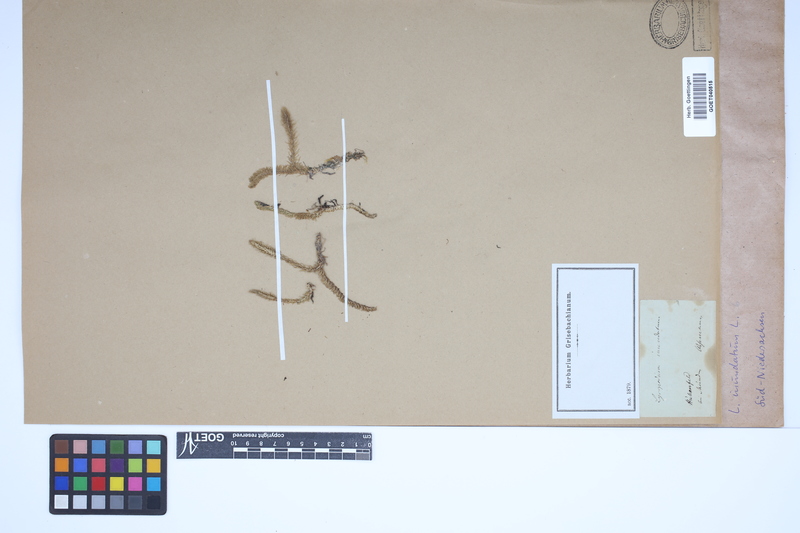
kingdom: Plantae
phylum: Tracheophyta
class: Lycopodiopsida
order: Lycopodiales
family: Lycopodiaceae
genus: Lycopodiella
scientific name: Lycopodiella inundata
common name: Marsh clubmoss
